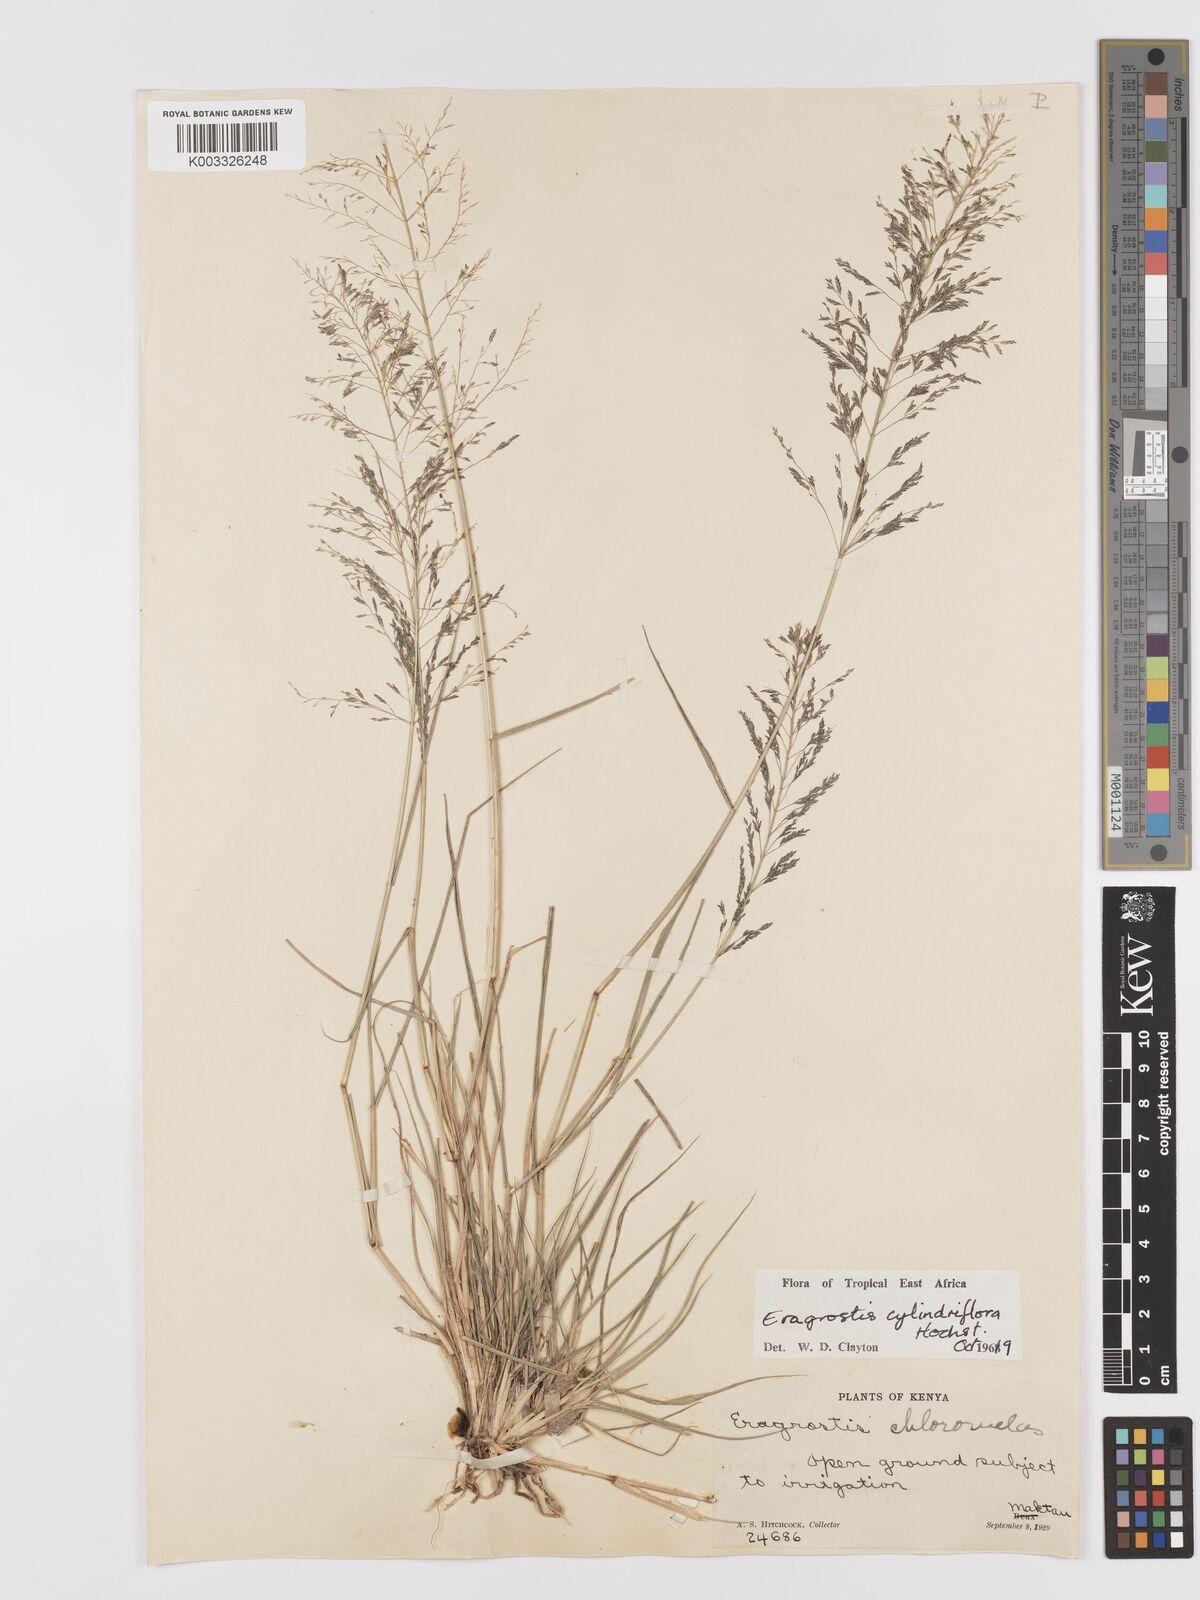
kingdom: Plantae
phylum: Tracheophyta
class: Liliopsida
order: Poales
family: Poaceae
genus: Eragrostis
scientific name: Eragrostis cylindriflora
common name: Cylinderflower lovegrass
